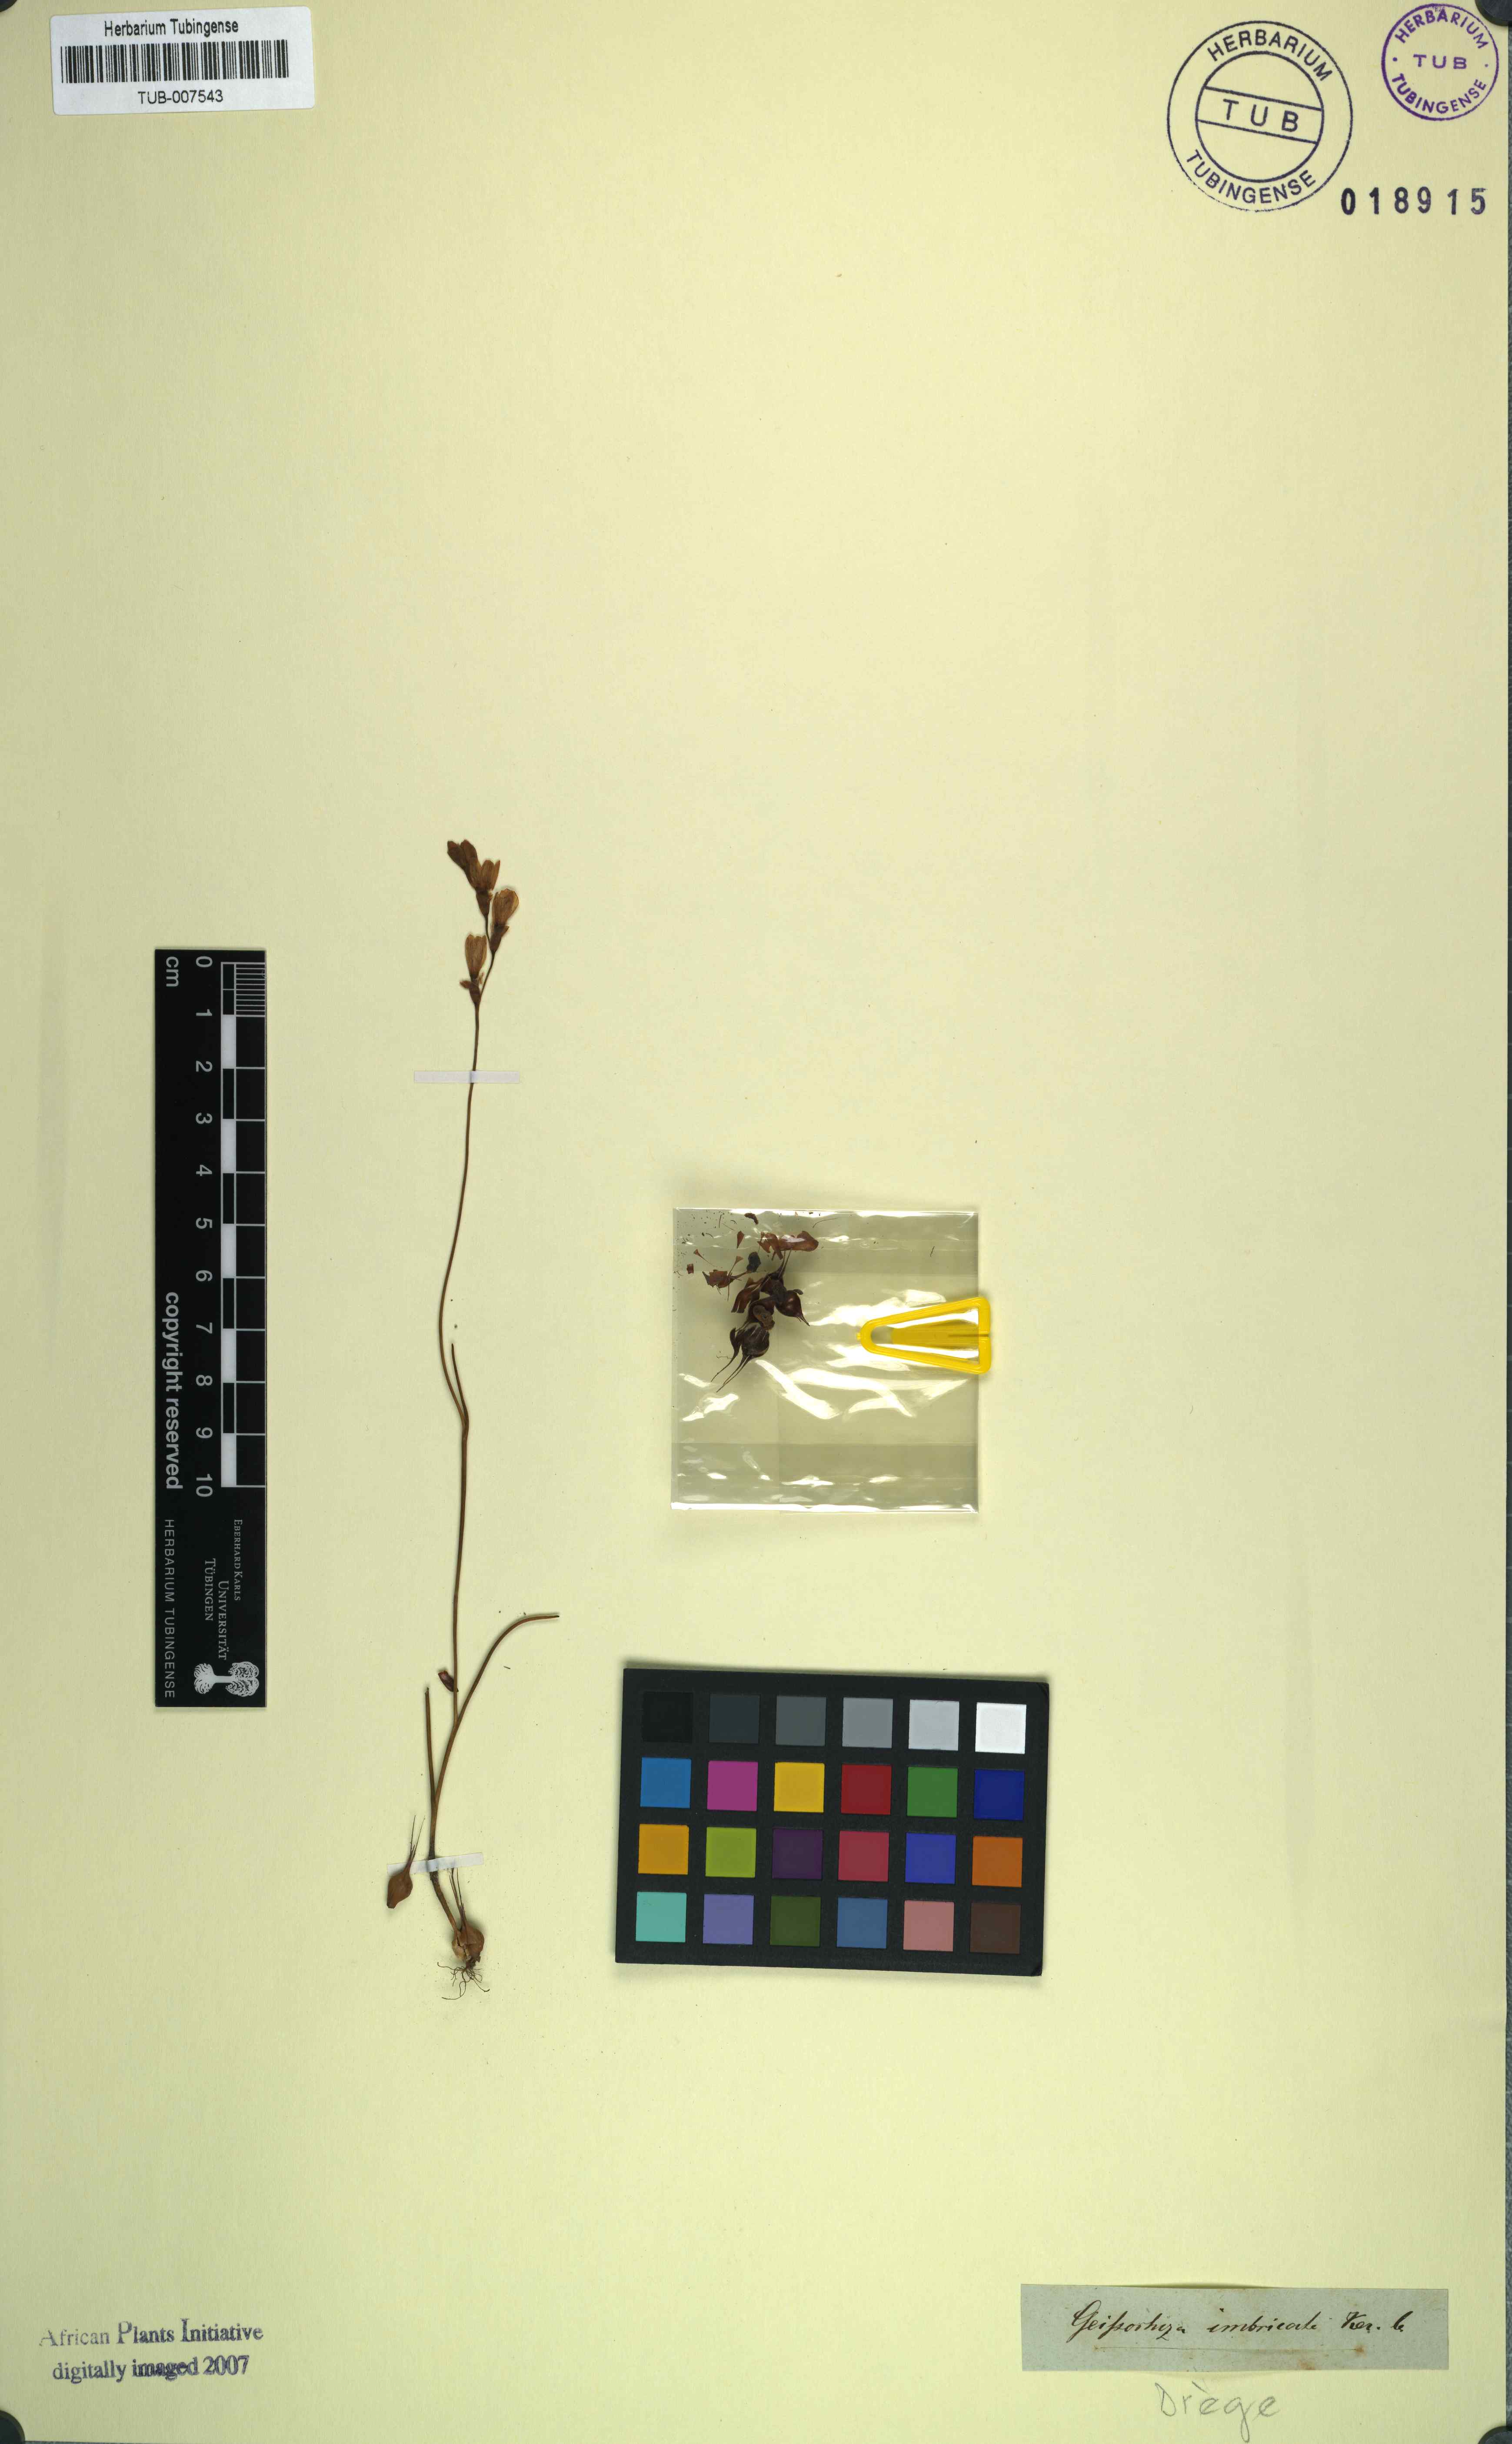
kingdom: Plantae
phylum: Tracheophyta
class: Liliopsida
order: Asparagales
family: Iridaceae
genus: Geissorhiza
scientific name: Geissorhiza imbricata
